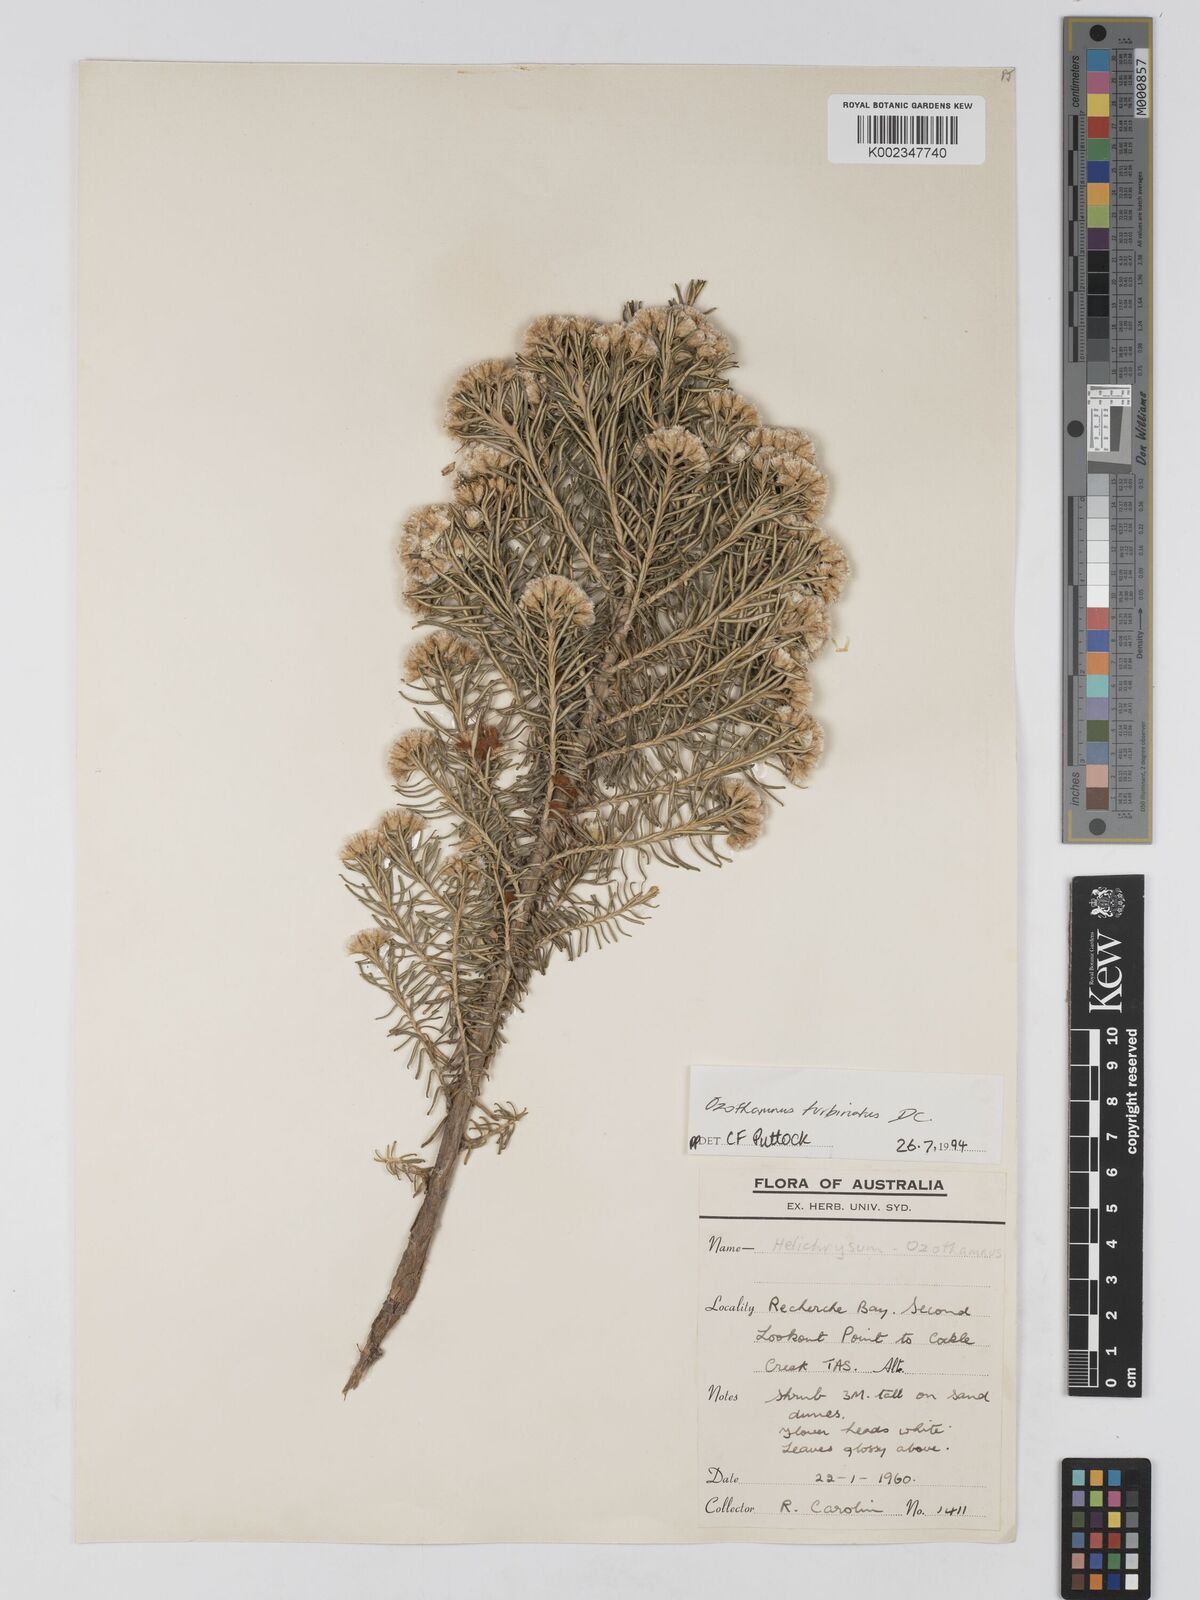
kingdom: Plantae
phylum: Tracheophyta
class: Magnoliopsida
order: Asterales
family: Asteraceae
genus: Ozothamnus
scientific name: Ozothamnus gunnii
